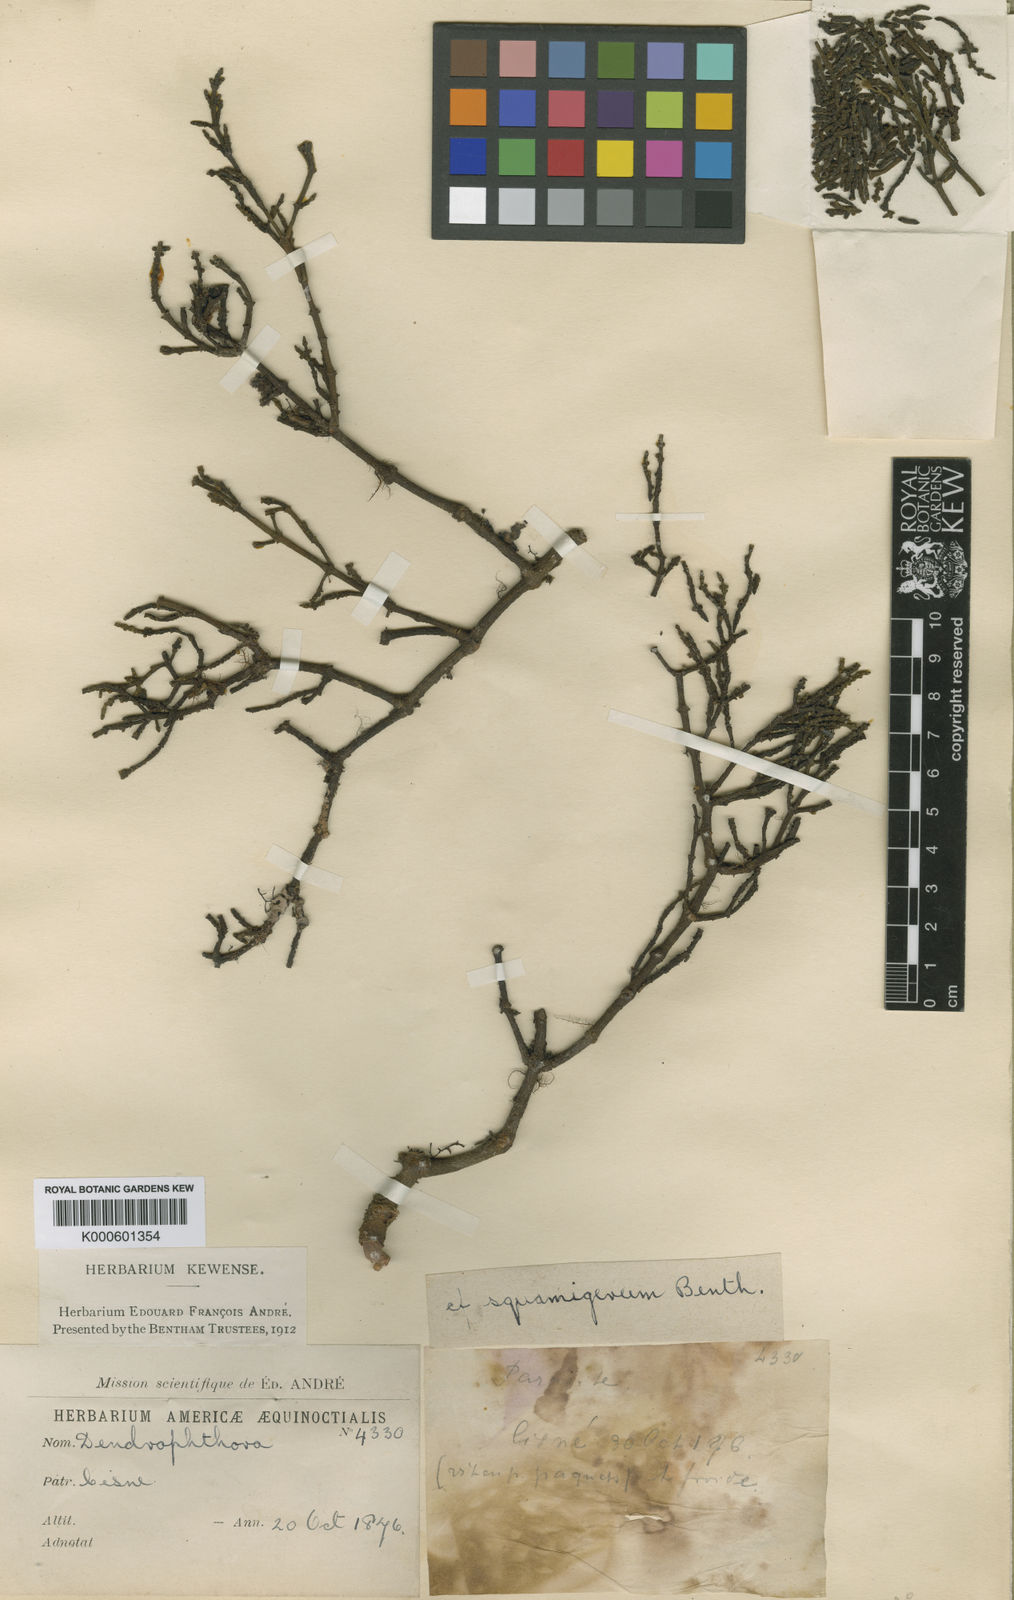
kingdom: Plantae
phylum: Tracheophyta
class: Magnoliopsida
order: Santalales
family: Viscaceae
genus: Dendrophthora
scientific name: Dendrophthora squamigera
